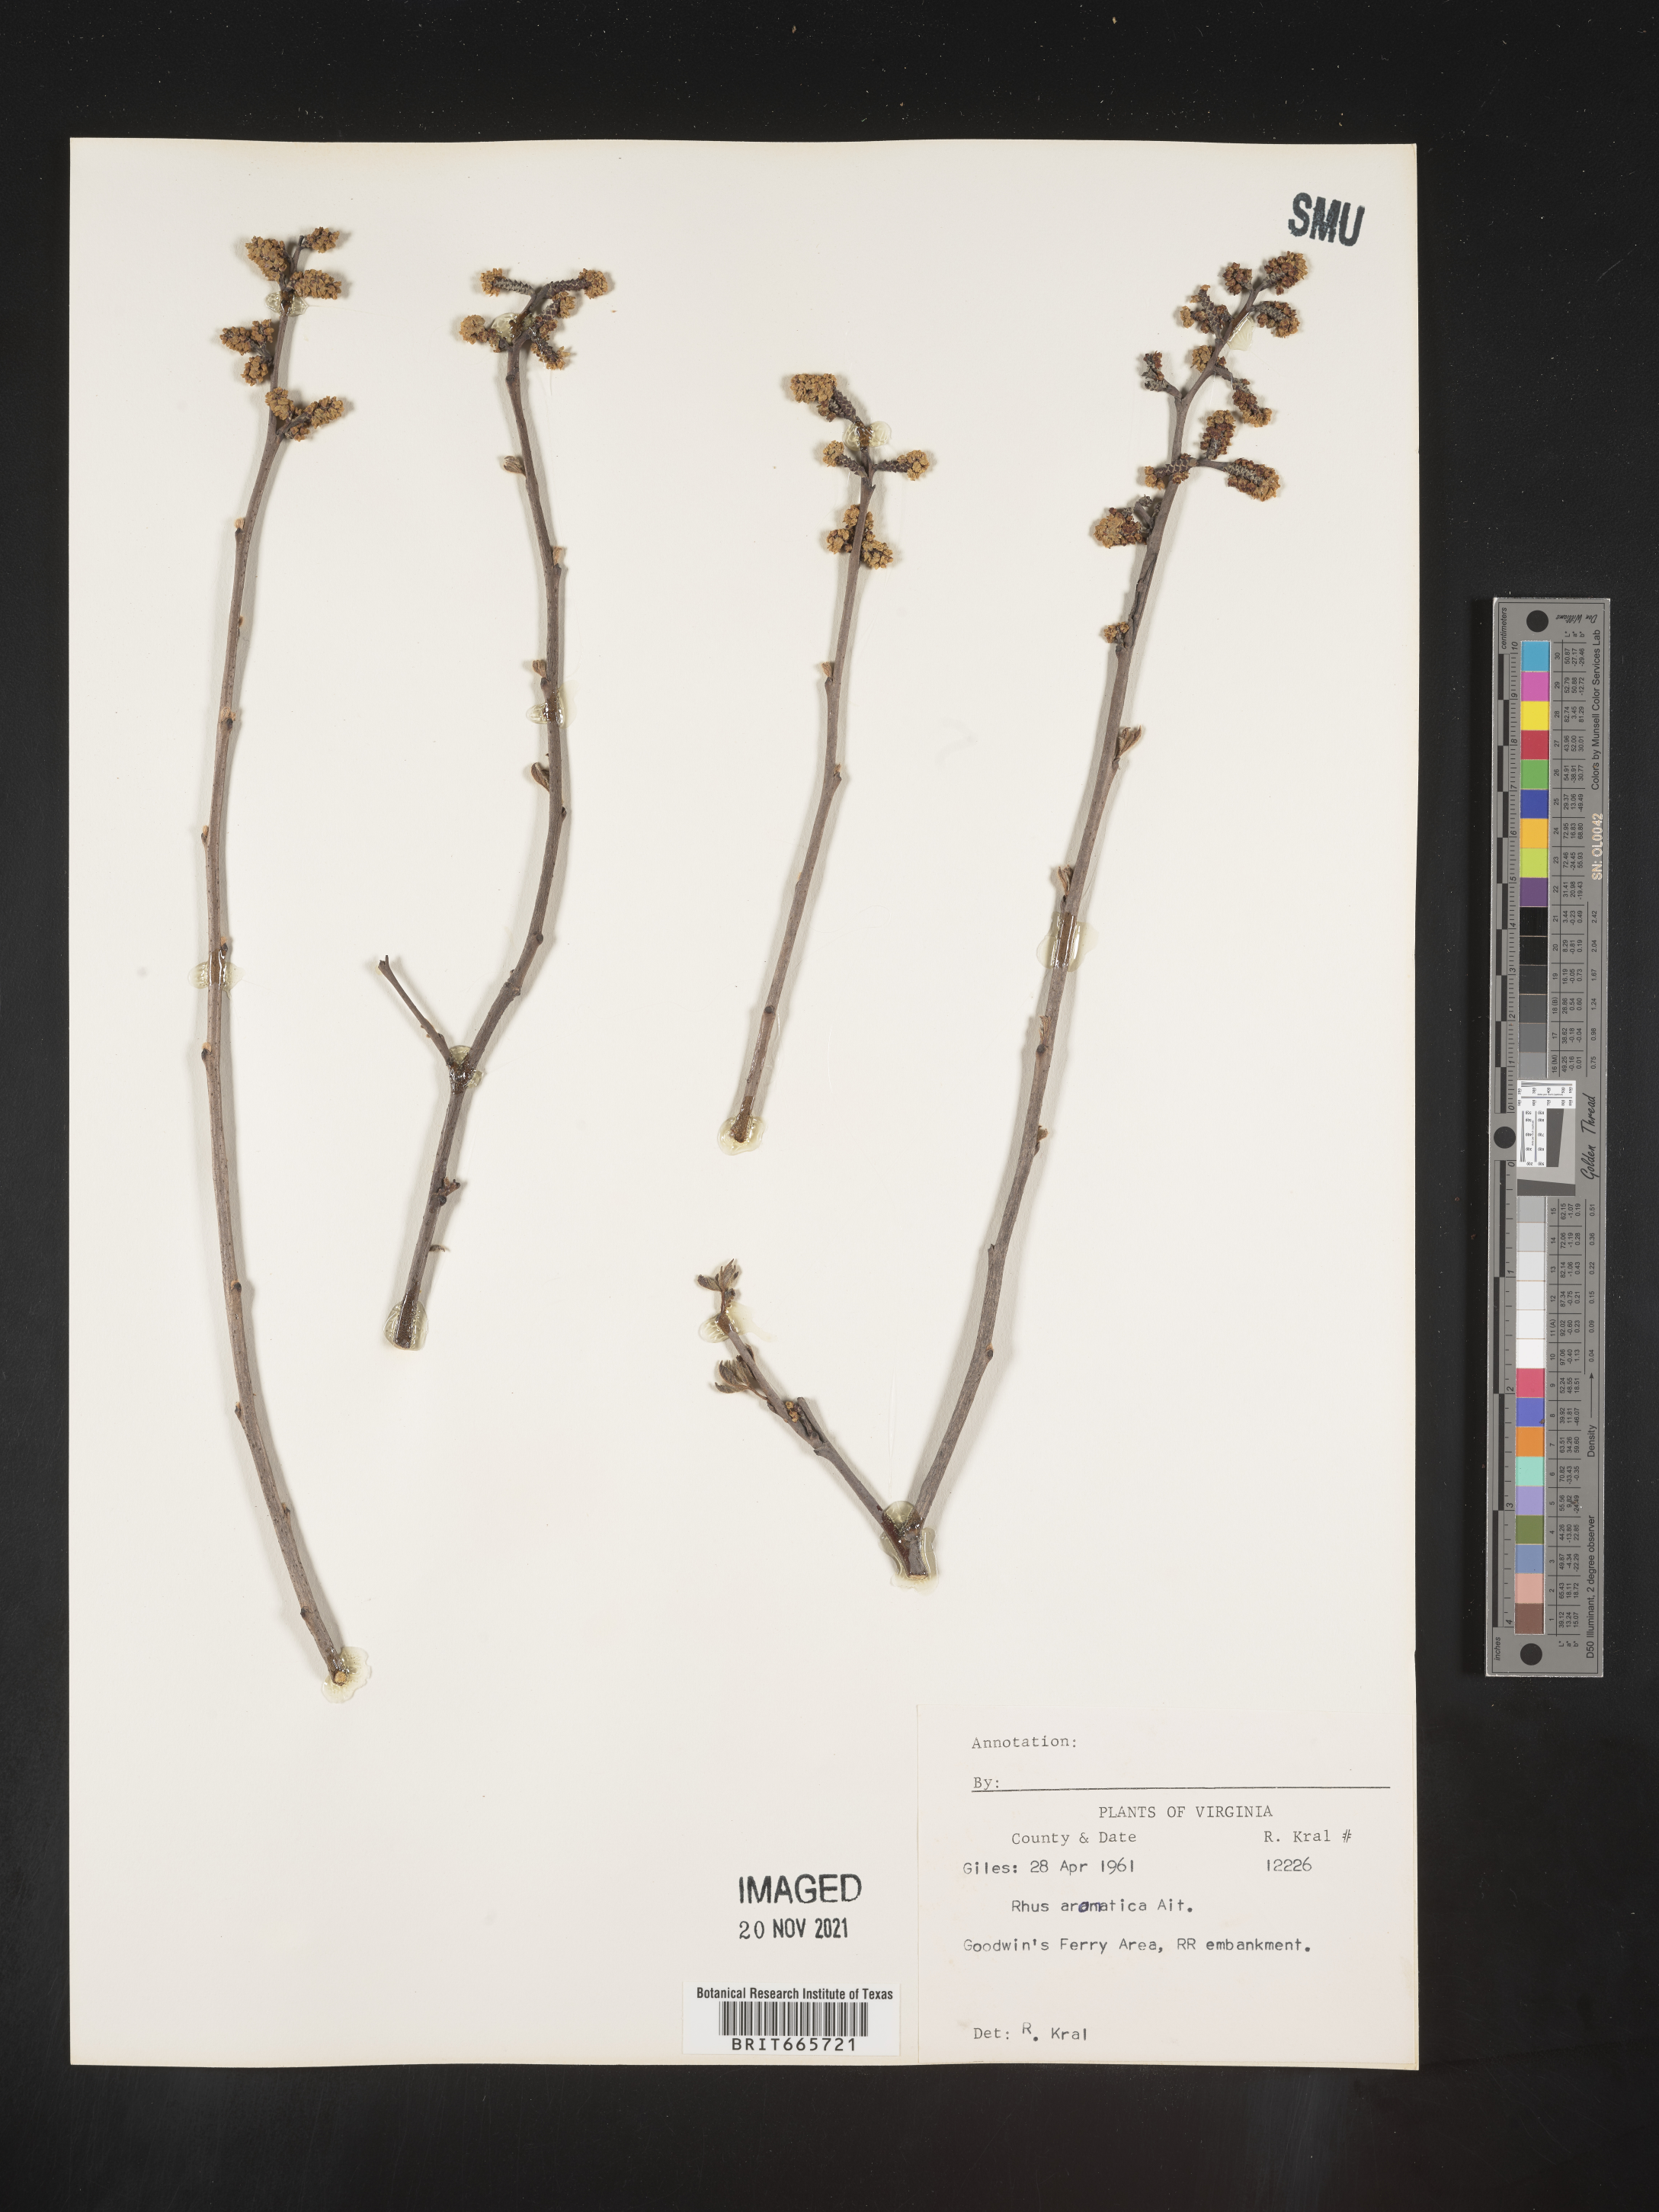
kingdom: Plantae
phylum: Tracheophyta
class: Magnoliopsida
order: Sapindales
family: Anacardiaceae
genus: Rhus
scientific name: Rhus aromatica
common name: Aromatic sumac
